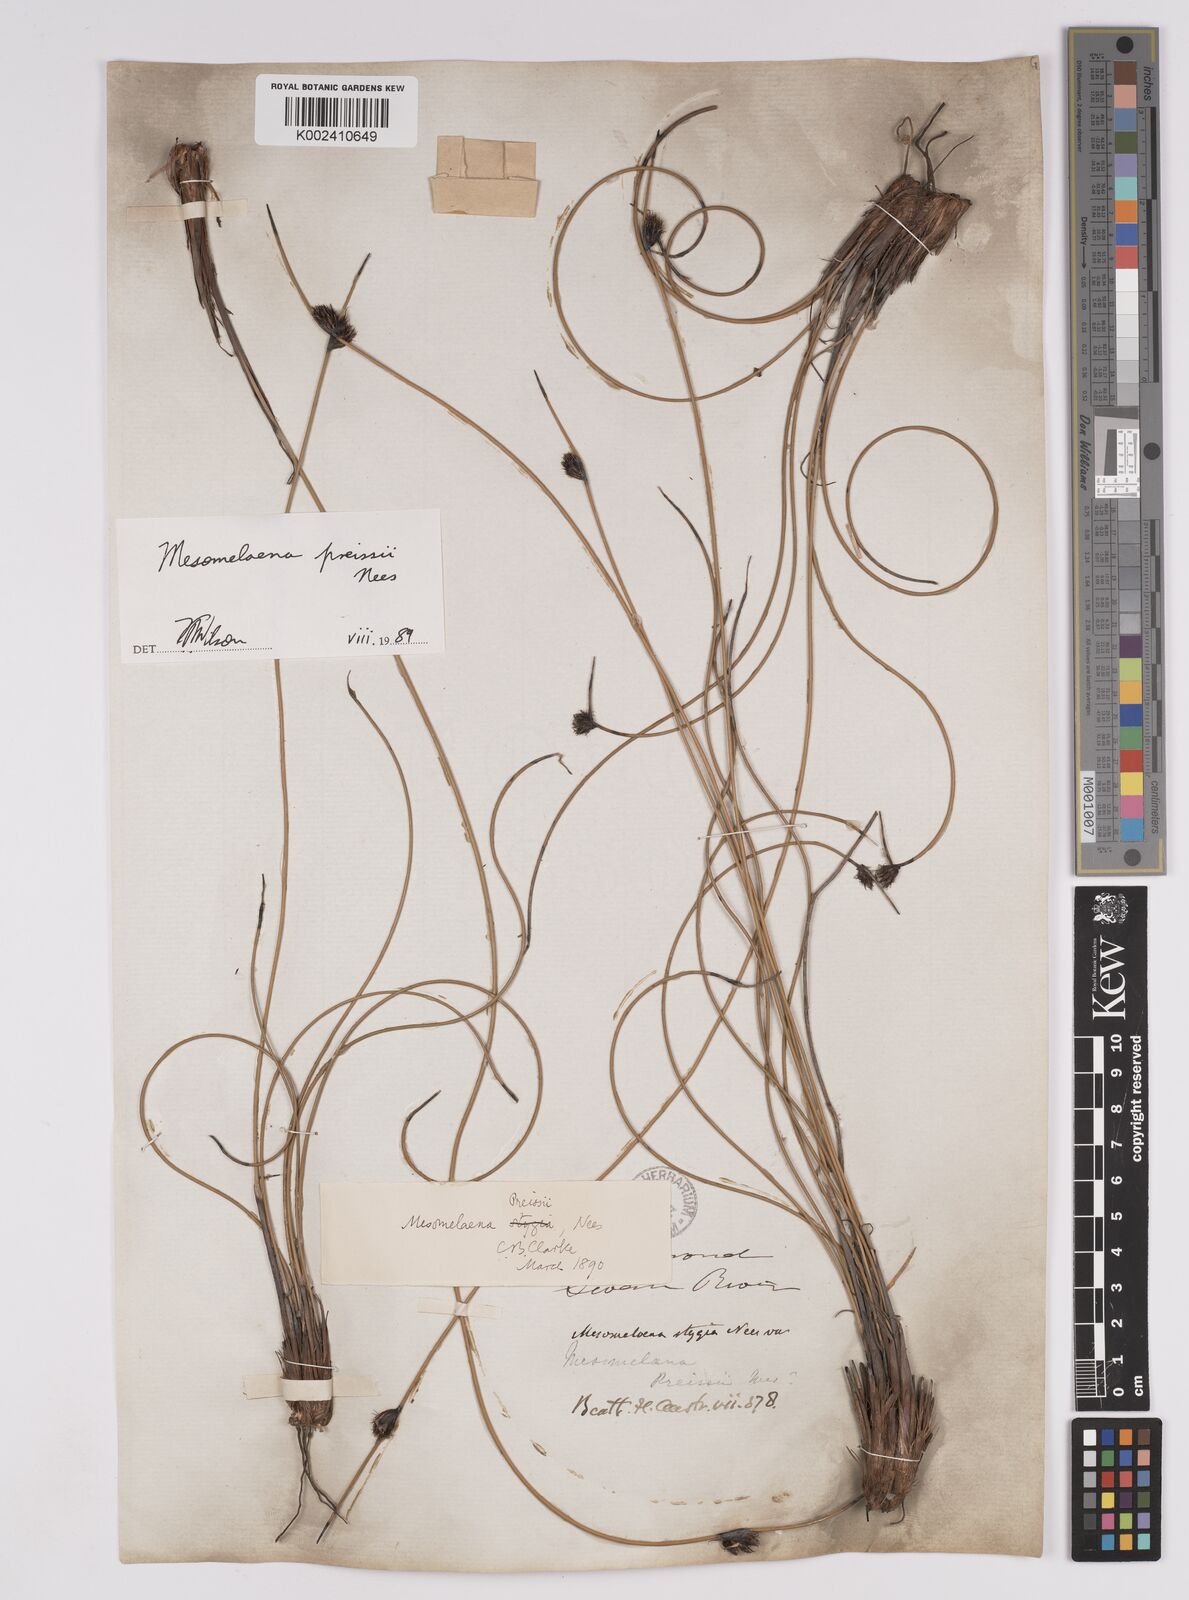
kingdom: Plantae
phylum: Tracheophyta
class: Liliopsida
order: Poales
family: Cyperaceae
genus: Mesomelaena
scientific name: Mesomelaena preissii
